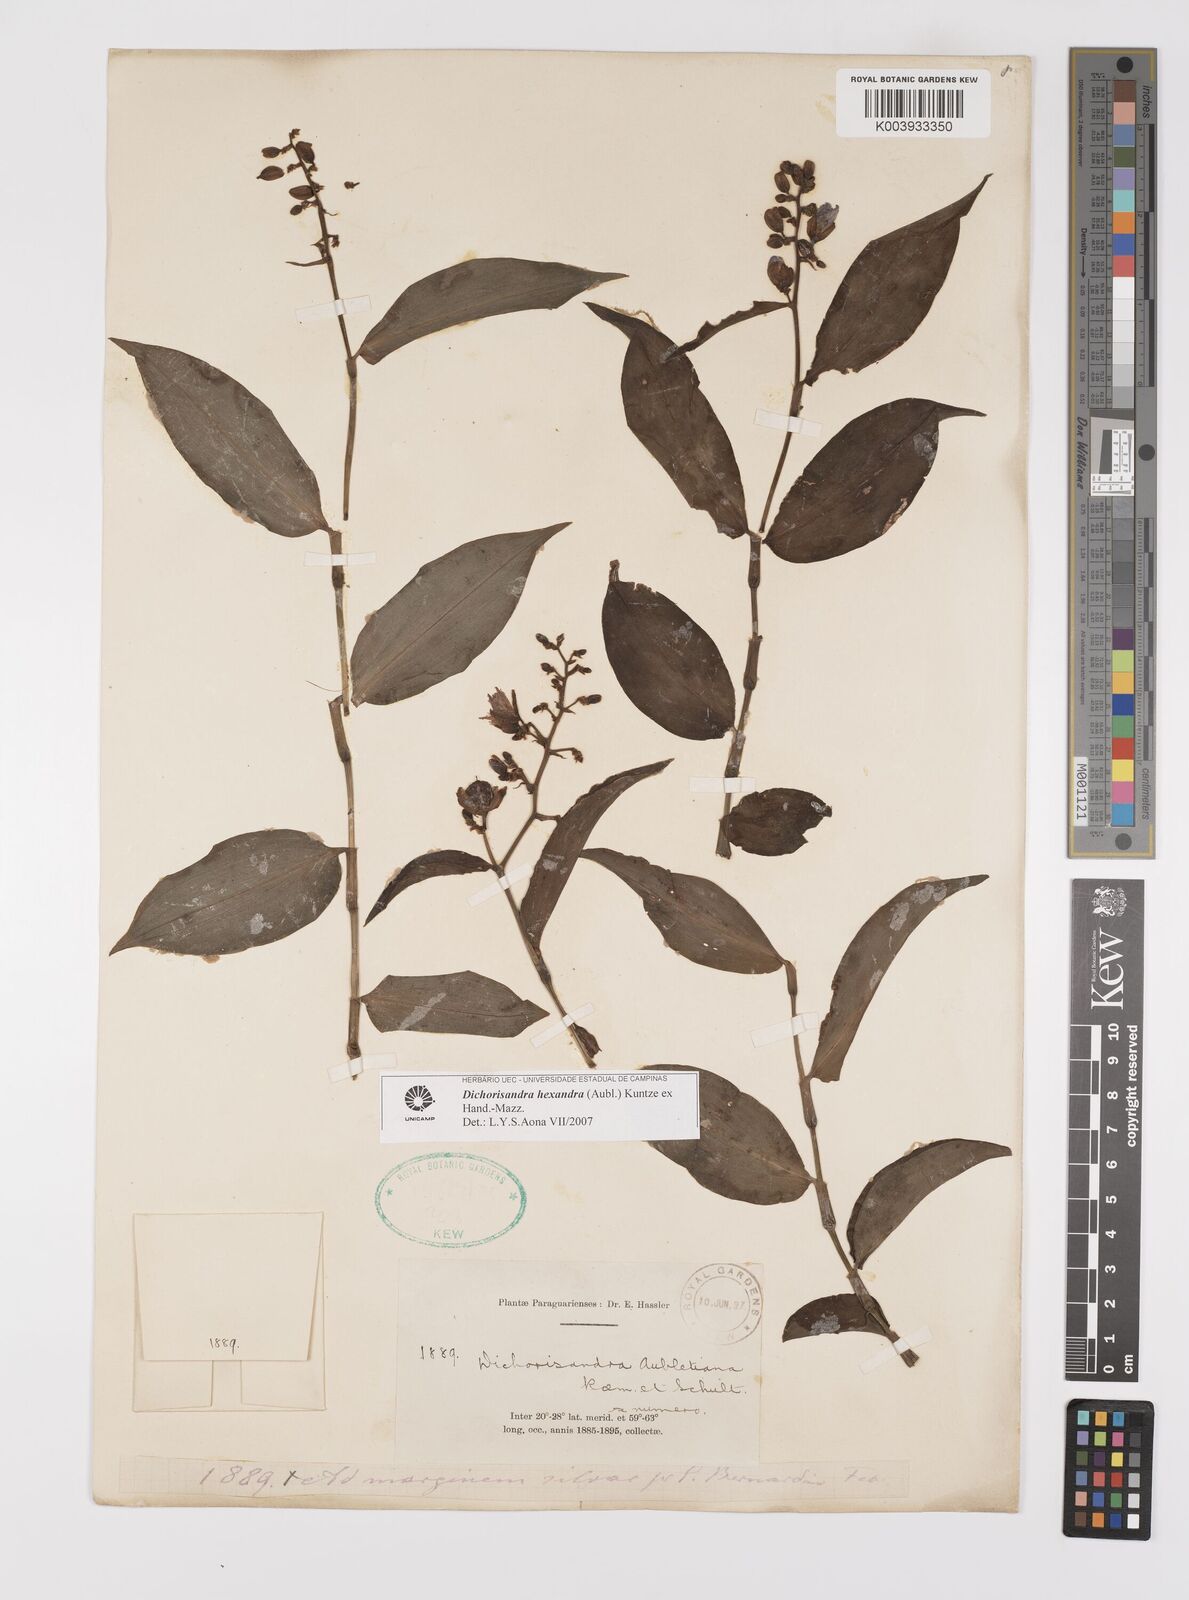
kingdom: Plantae
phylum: Tracheophyta
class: Liliopsida
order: Commelinales
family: Commelinaceae
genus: Dichorisandra
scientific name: Dichorisandra hexandra
